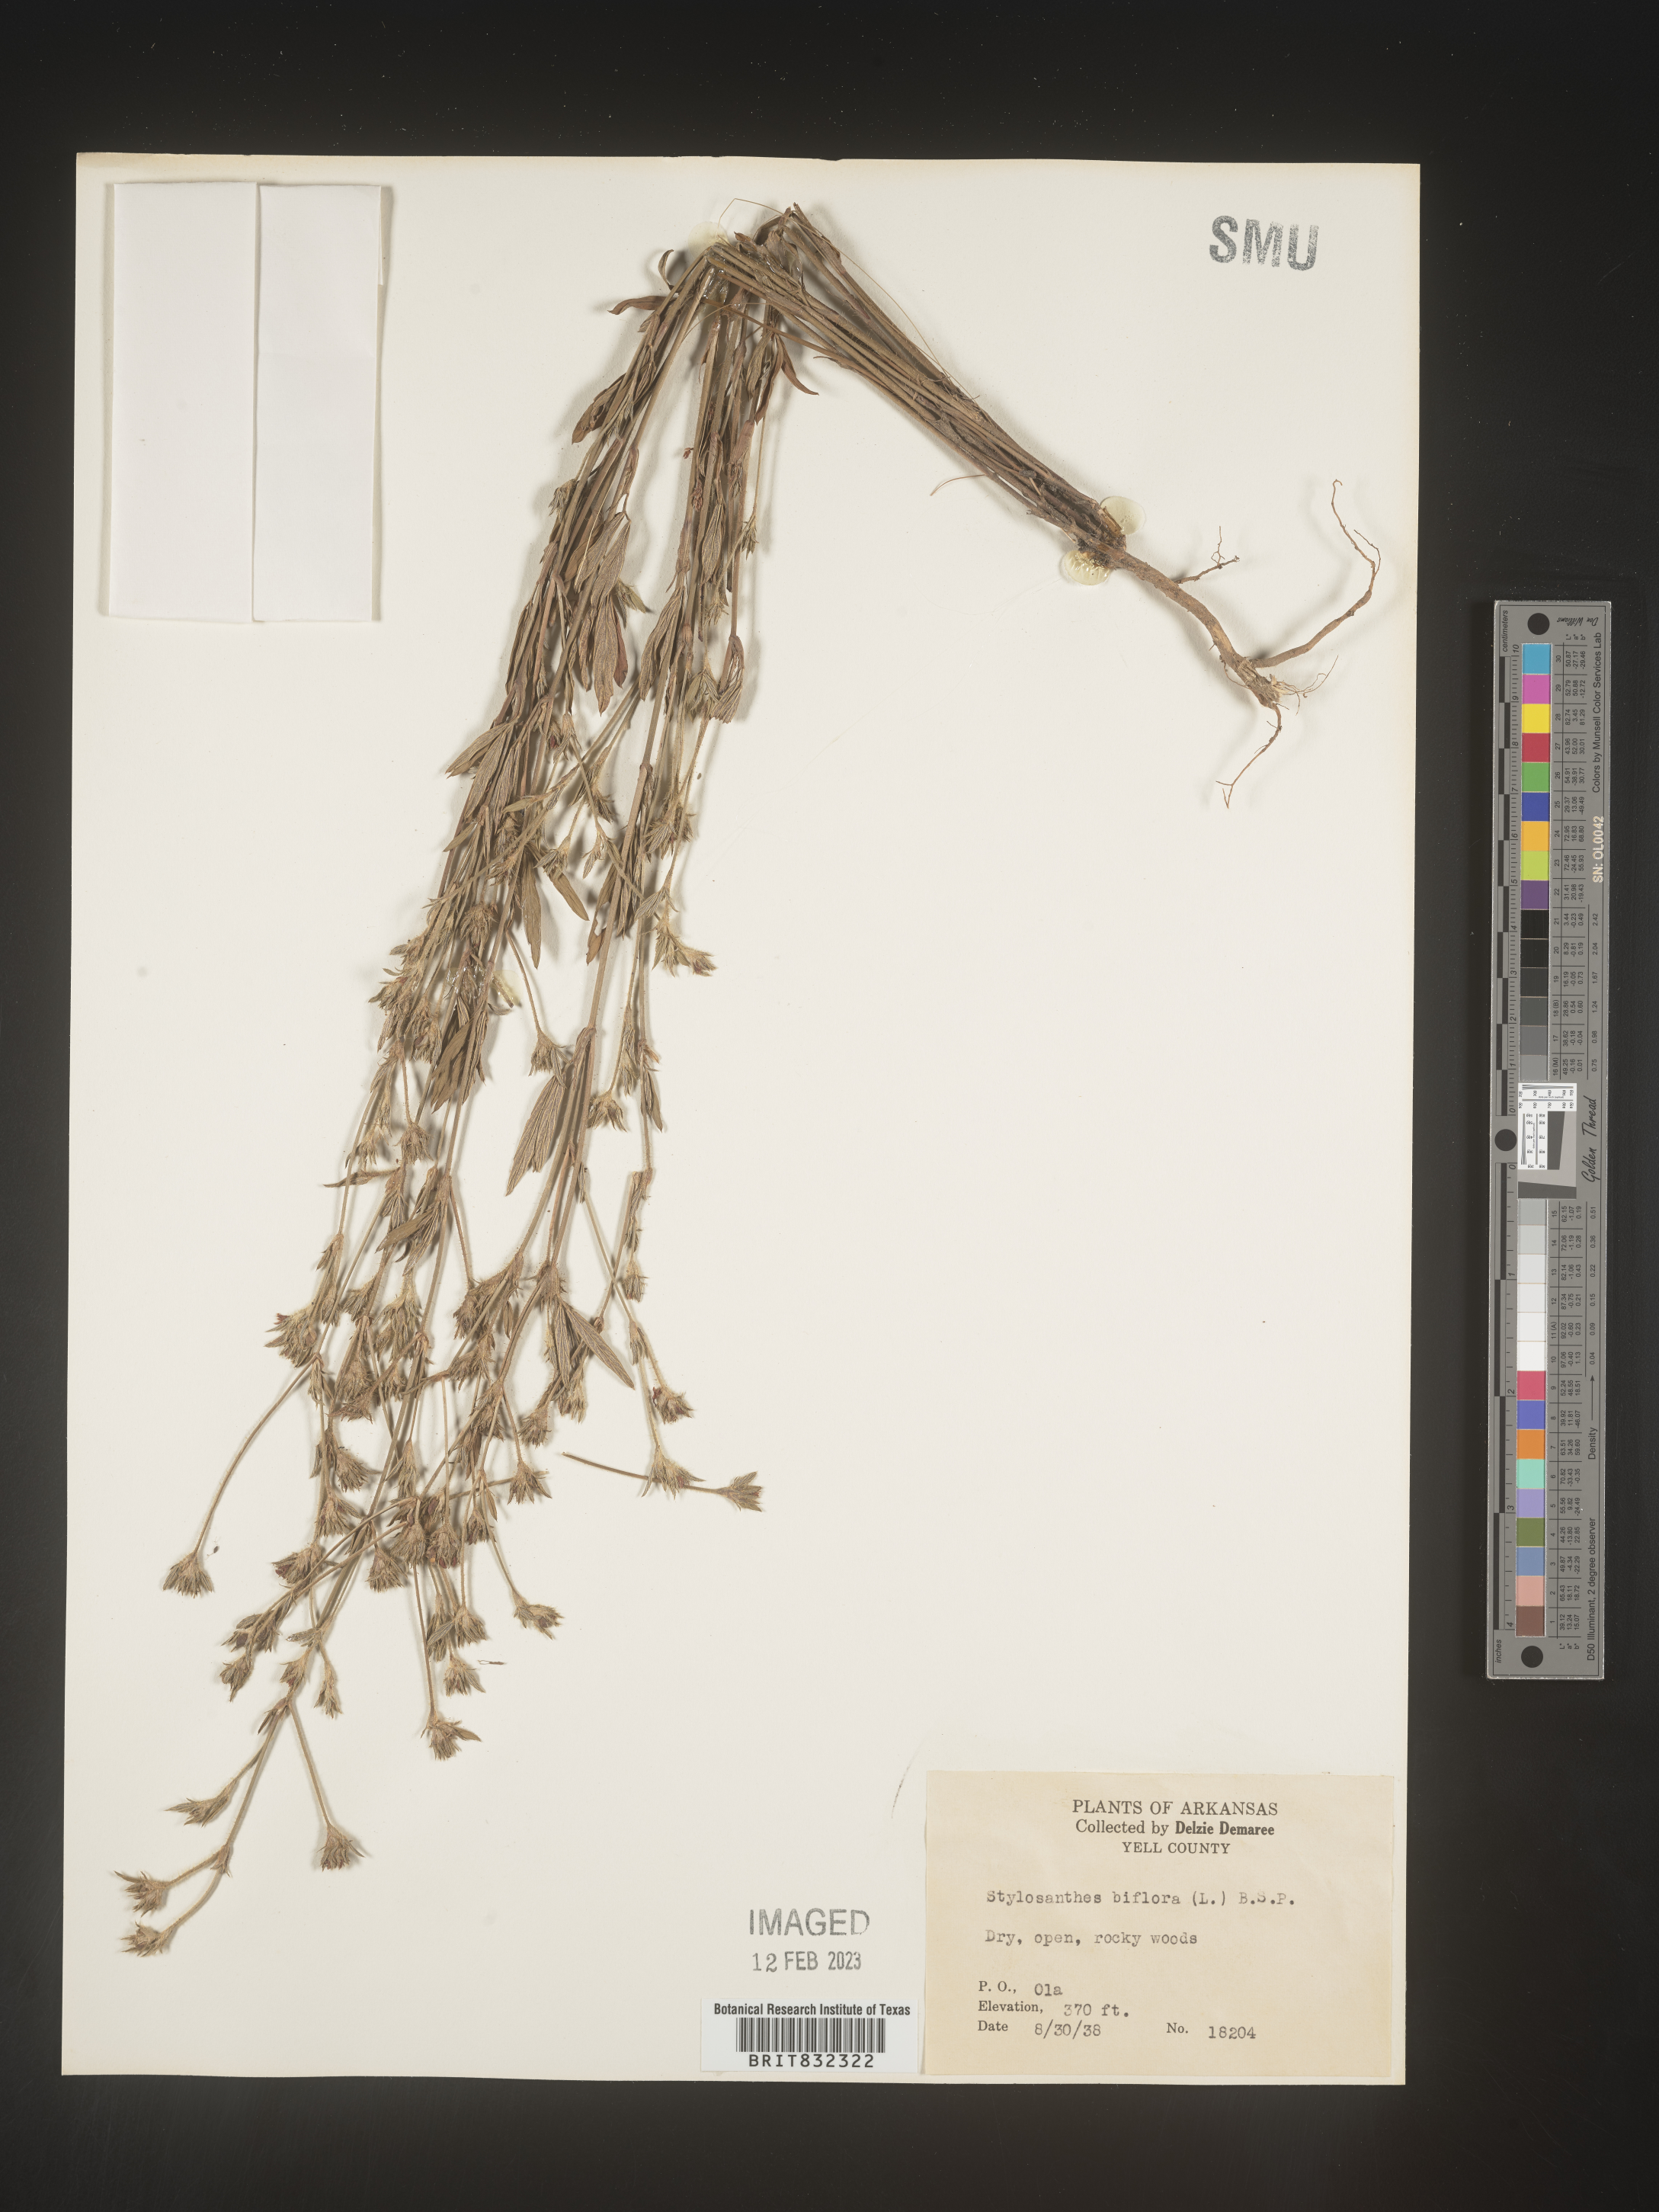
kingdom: Plantae
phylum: Tracheophyta
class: Magnoliopsida
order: Fabales
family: Fabaceae
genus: Stylosanthes
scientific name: Stylosanthes biflora
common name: Two-flower pencil-flower
